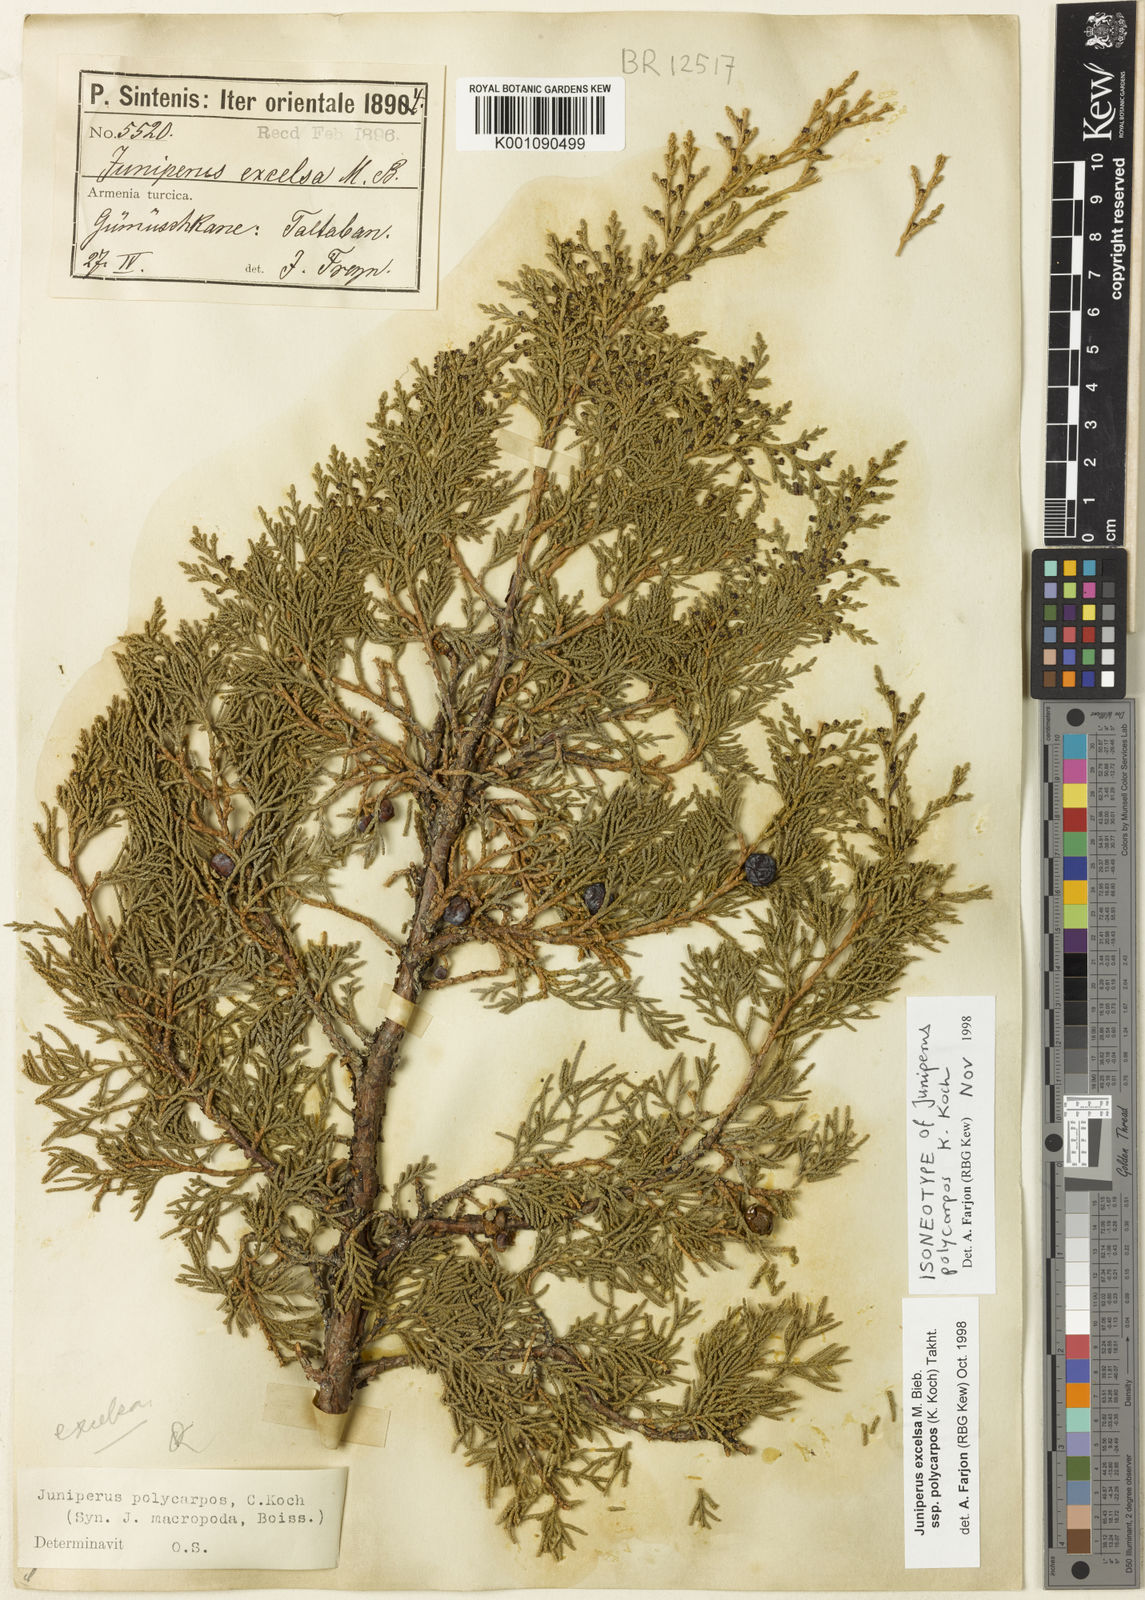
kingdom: Plantae
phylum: Tracheophyta
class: Pinopsida
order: Pinales
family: Cupressaceae
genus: Juniperus
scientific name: Juniperus excelsa
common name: Crimean juniper
